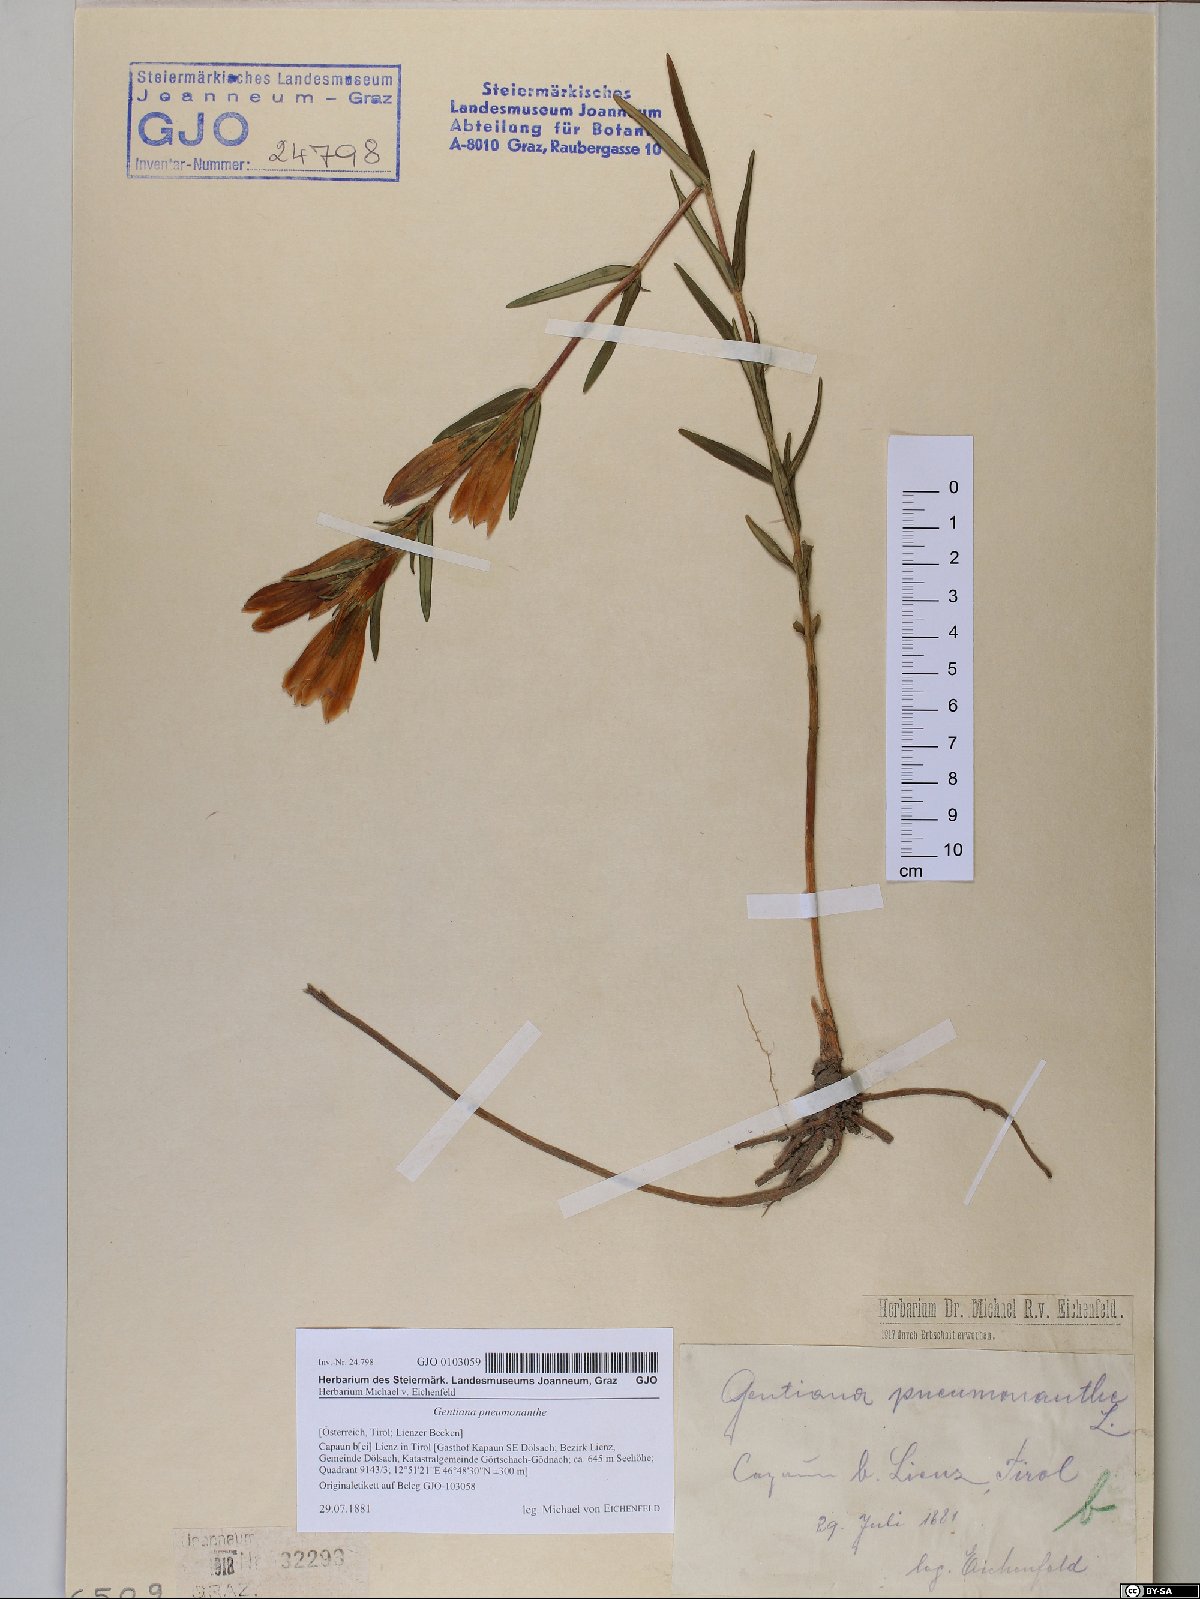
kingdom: Plantae
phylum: Tracheophyta
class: Magnoliopsida
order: Gentianales
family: Gentianaceae
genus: Gentiana
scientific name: Gentiana pneumonanthe
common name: Marsh gentian
